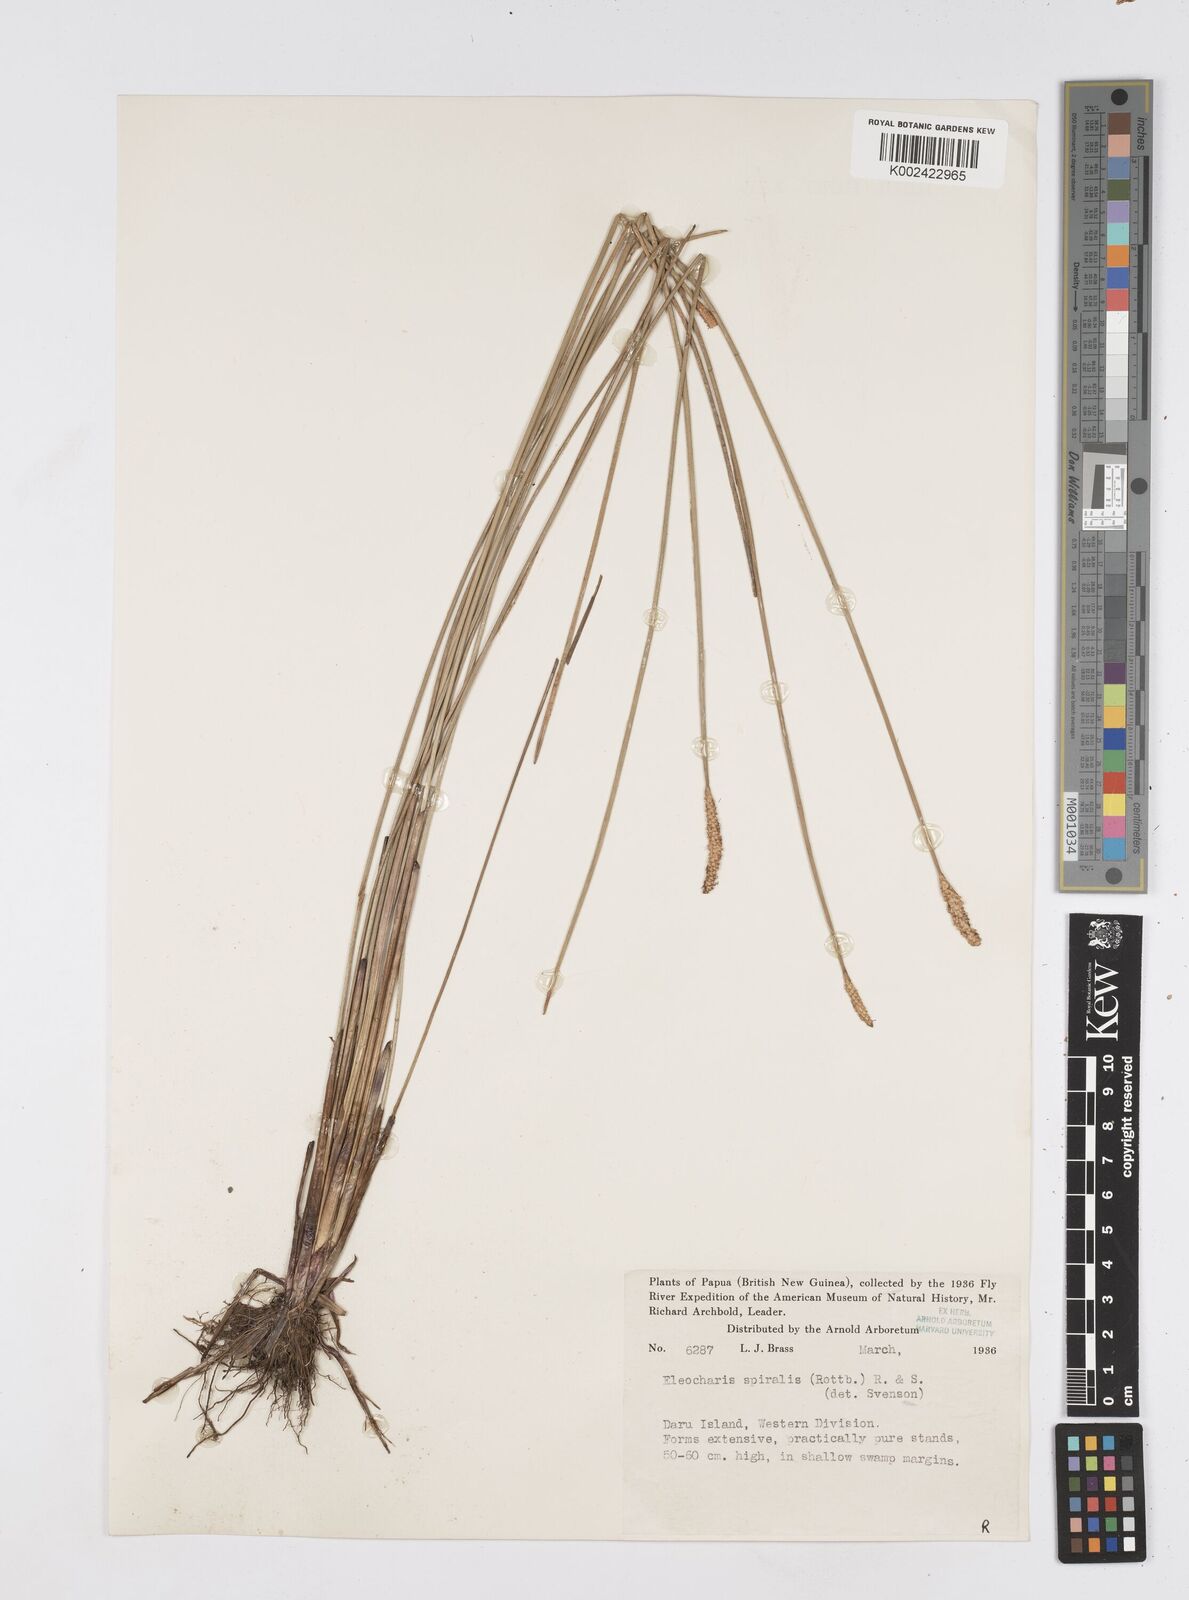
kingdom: Plantae
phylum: Tracheophyta
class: Liliopsida
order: Poales
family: Cyperaceae
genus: Eleocharis
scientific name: Eleocharis spiralis
